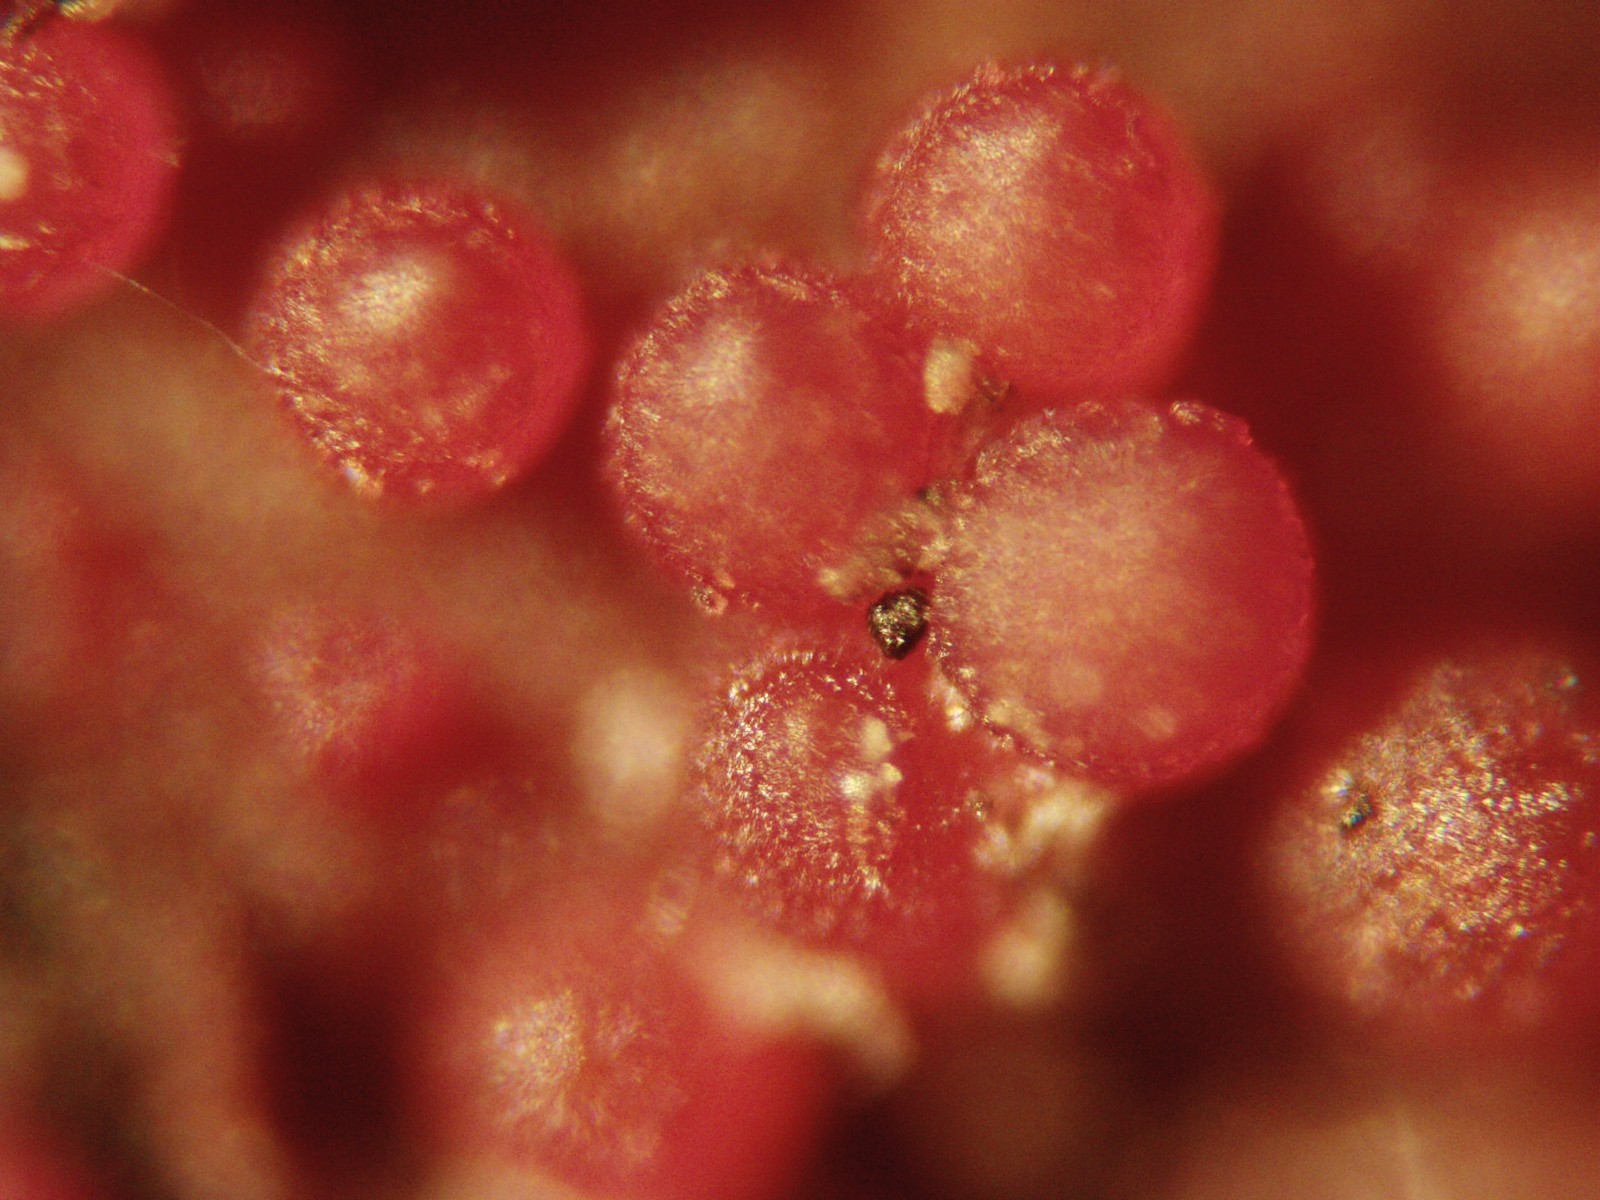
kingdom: Fungi
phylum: Ascomycota
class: Sordariomycetes
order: Hypocreales
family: Nectriaceae
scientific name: Nectriaceae
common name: cinnobersvampfamilien
